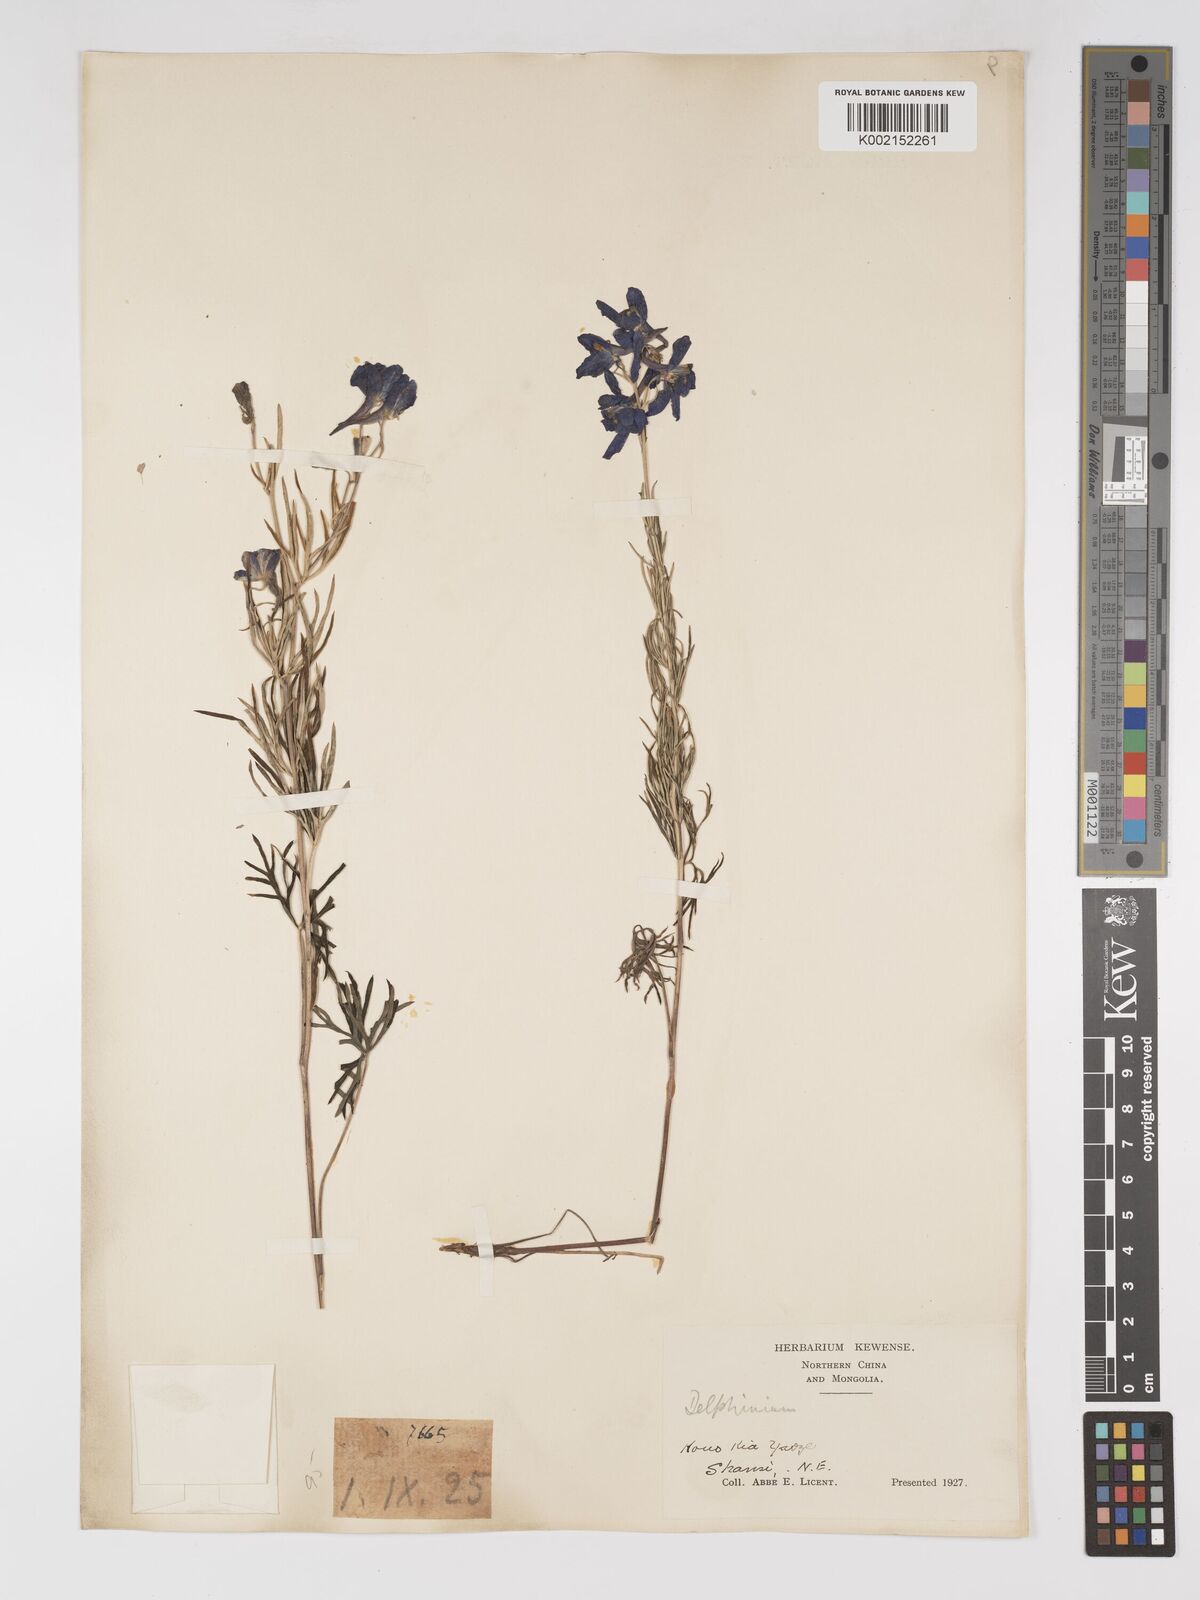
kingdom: Plantae
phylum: Tracheophyta
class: Magnoliopsida
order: Ranunculales
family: Ranunculaceae
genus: Delphinium
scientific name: Delphinium grandiflorum
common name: Siberian larkspur
